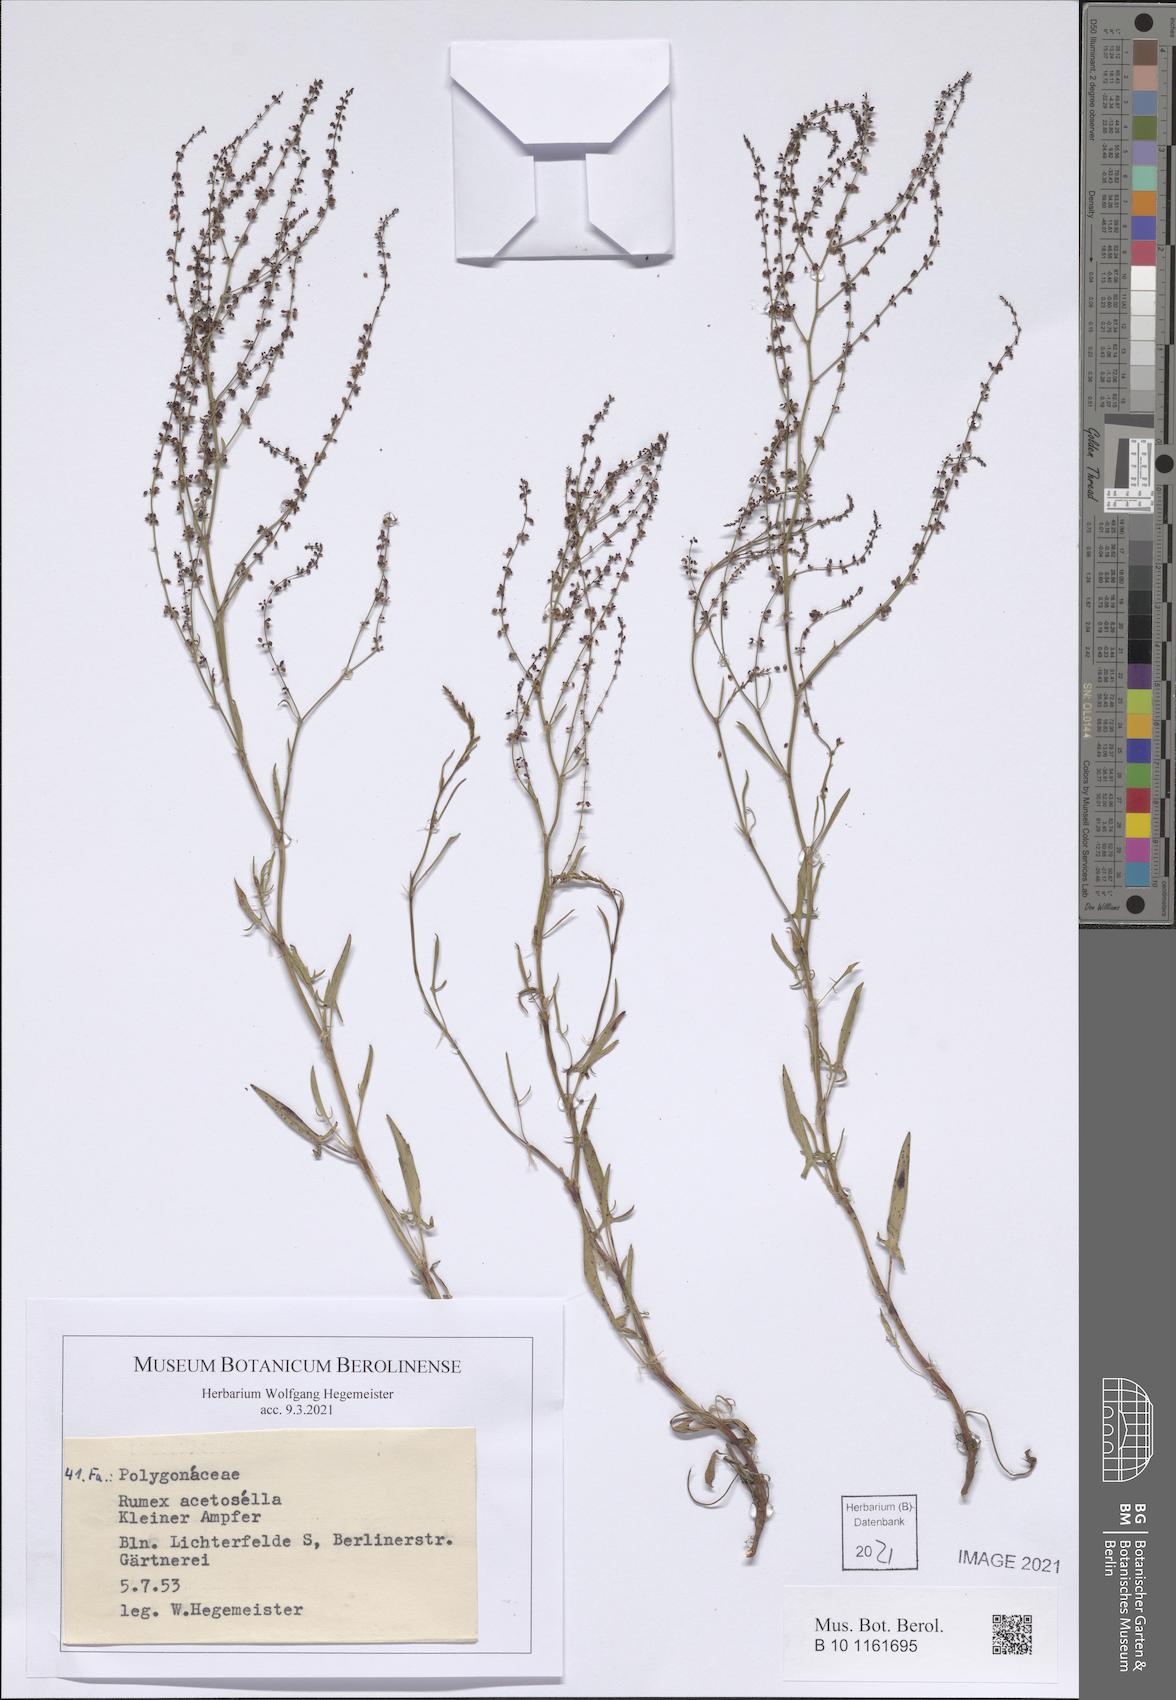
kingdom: Plantae
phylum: Tracheophyta
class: Magnoliopsida
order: Caryophyllales
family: Polygonaceae
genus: Rumex
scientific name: Rumex acetosella
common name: Common sheep sorrel
